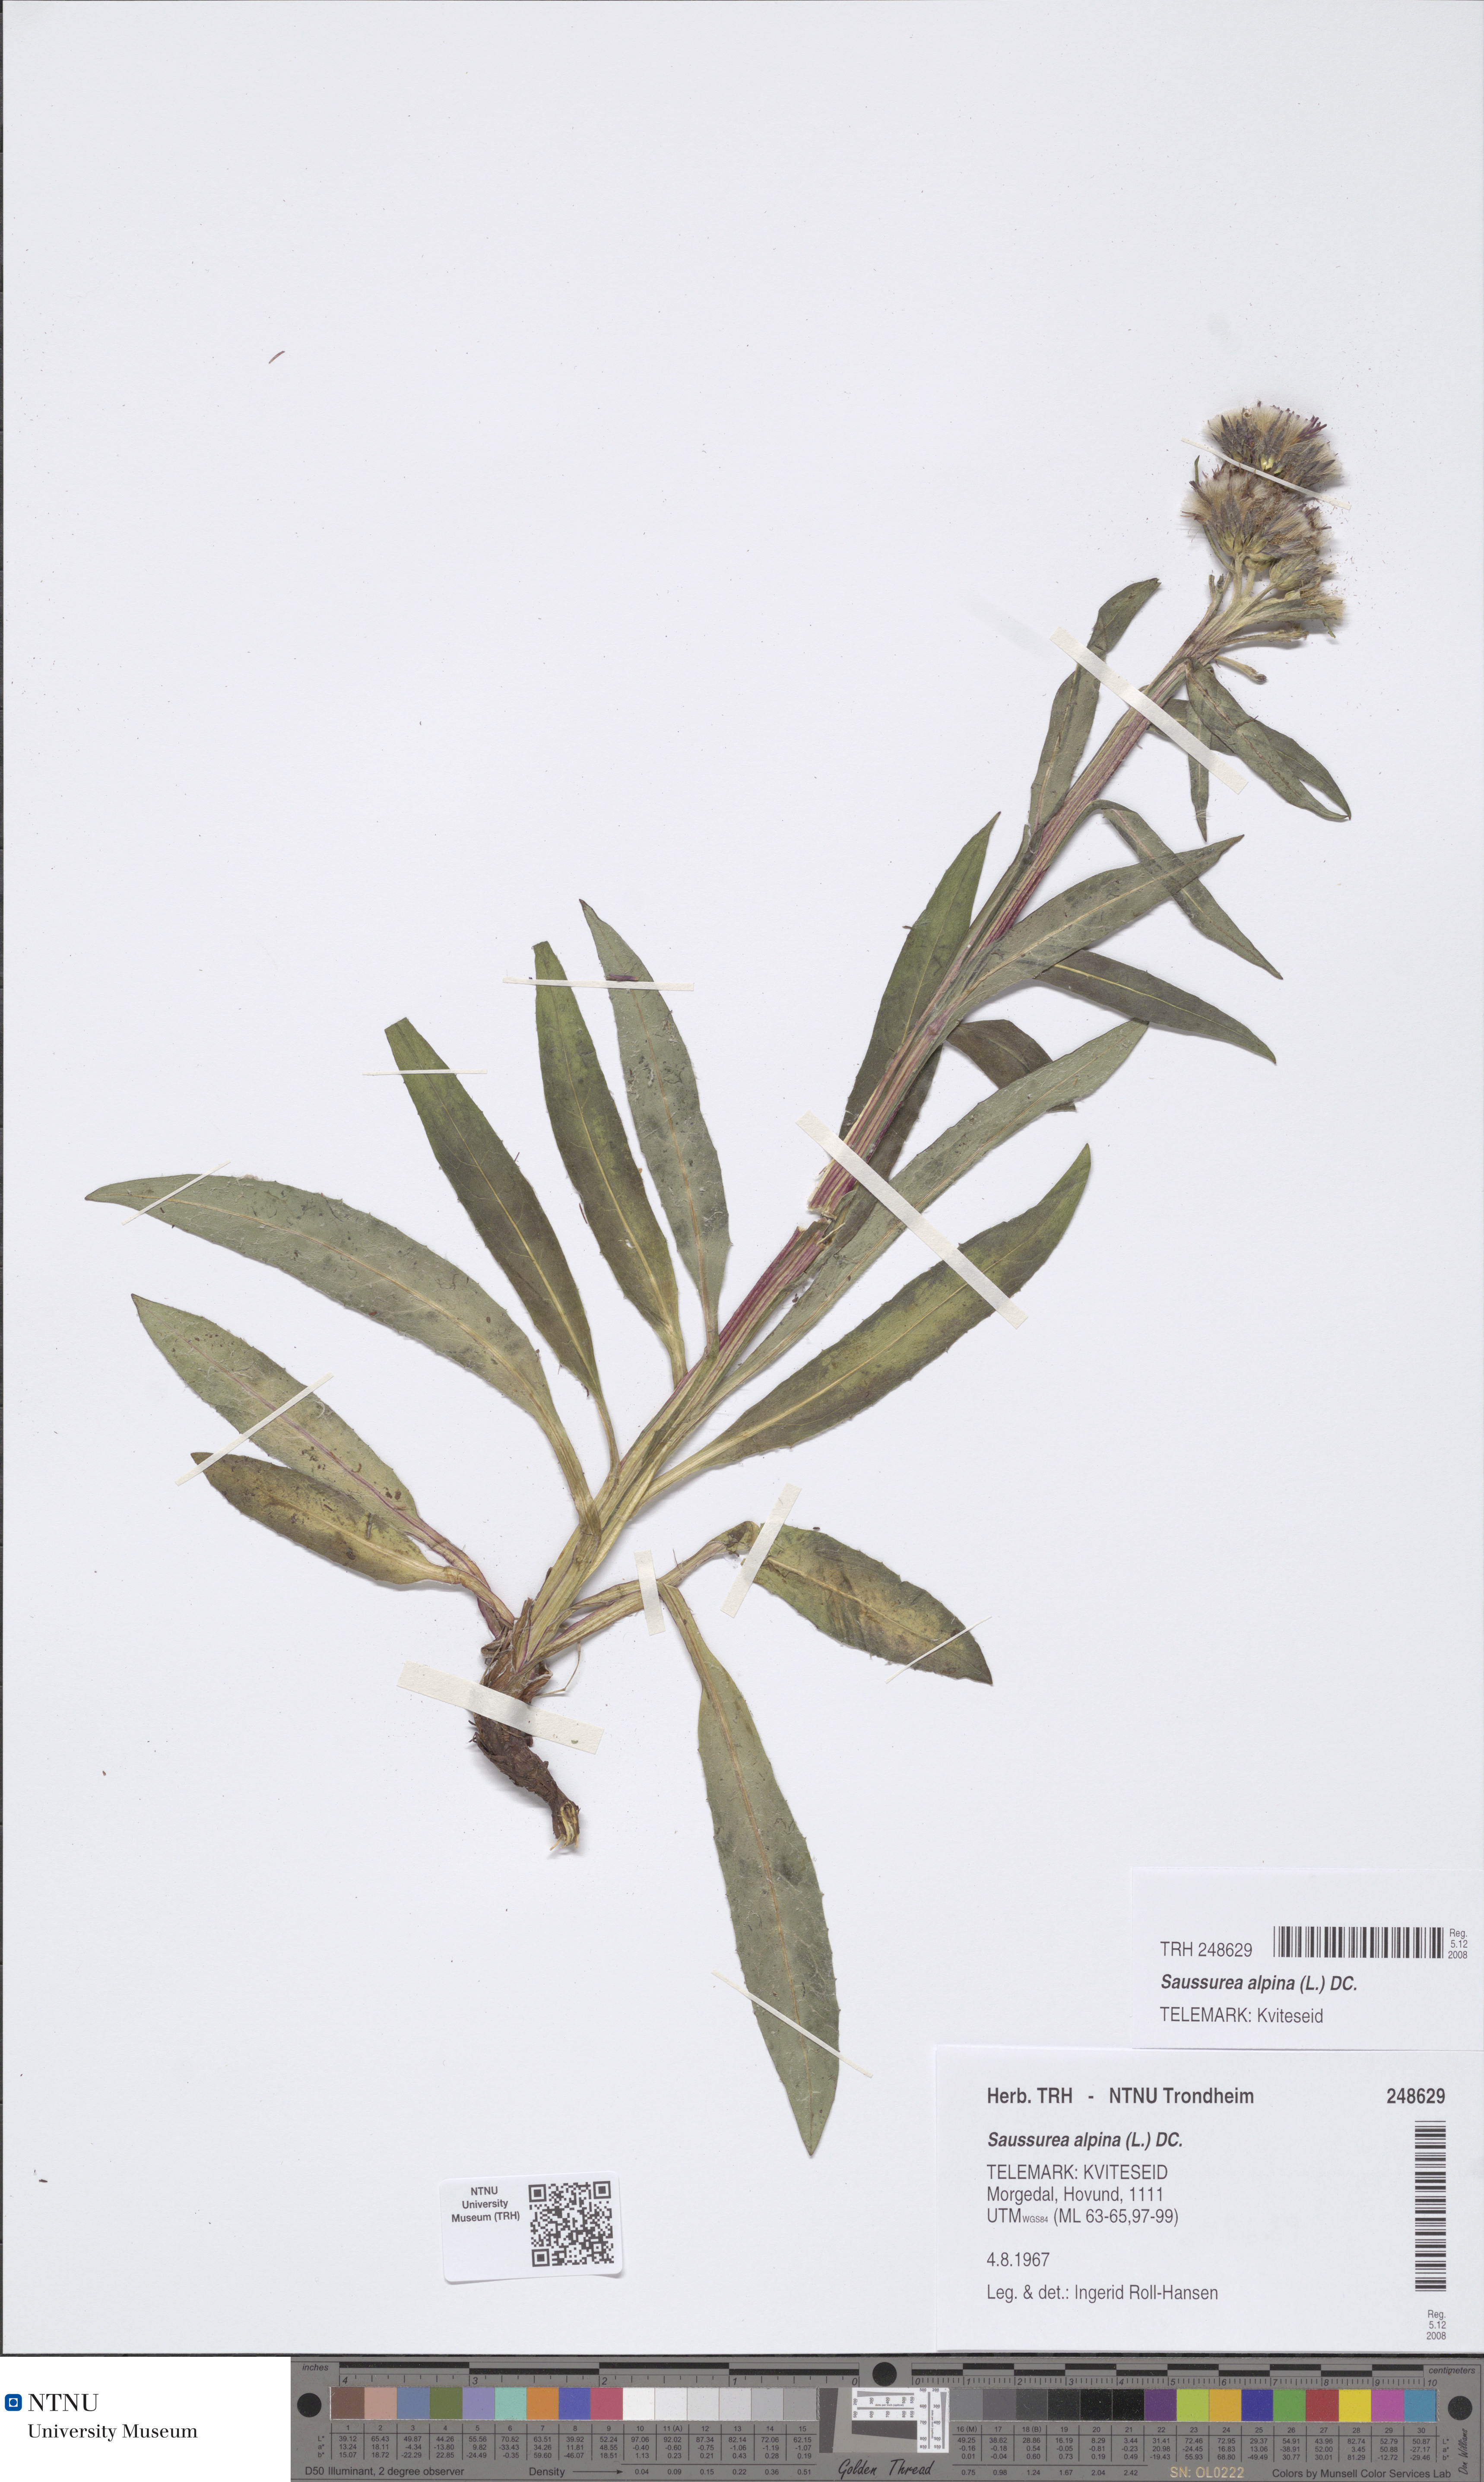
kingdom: Plantae
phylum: Tracheophyta
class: Magnoliopsida
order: Asterales
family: Asteraceae
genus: Saussurea
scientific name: Saussurea alpina
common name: Alpine saw-wort
